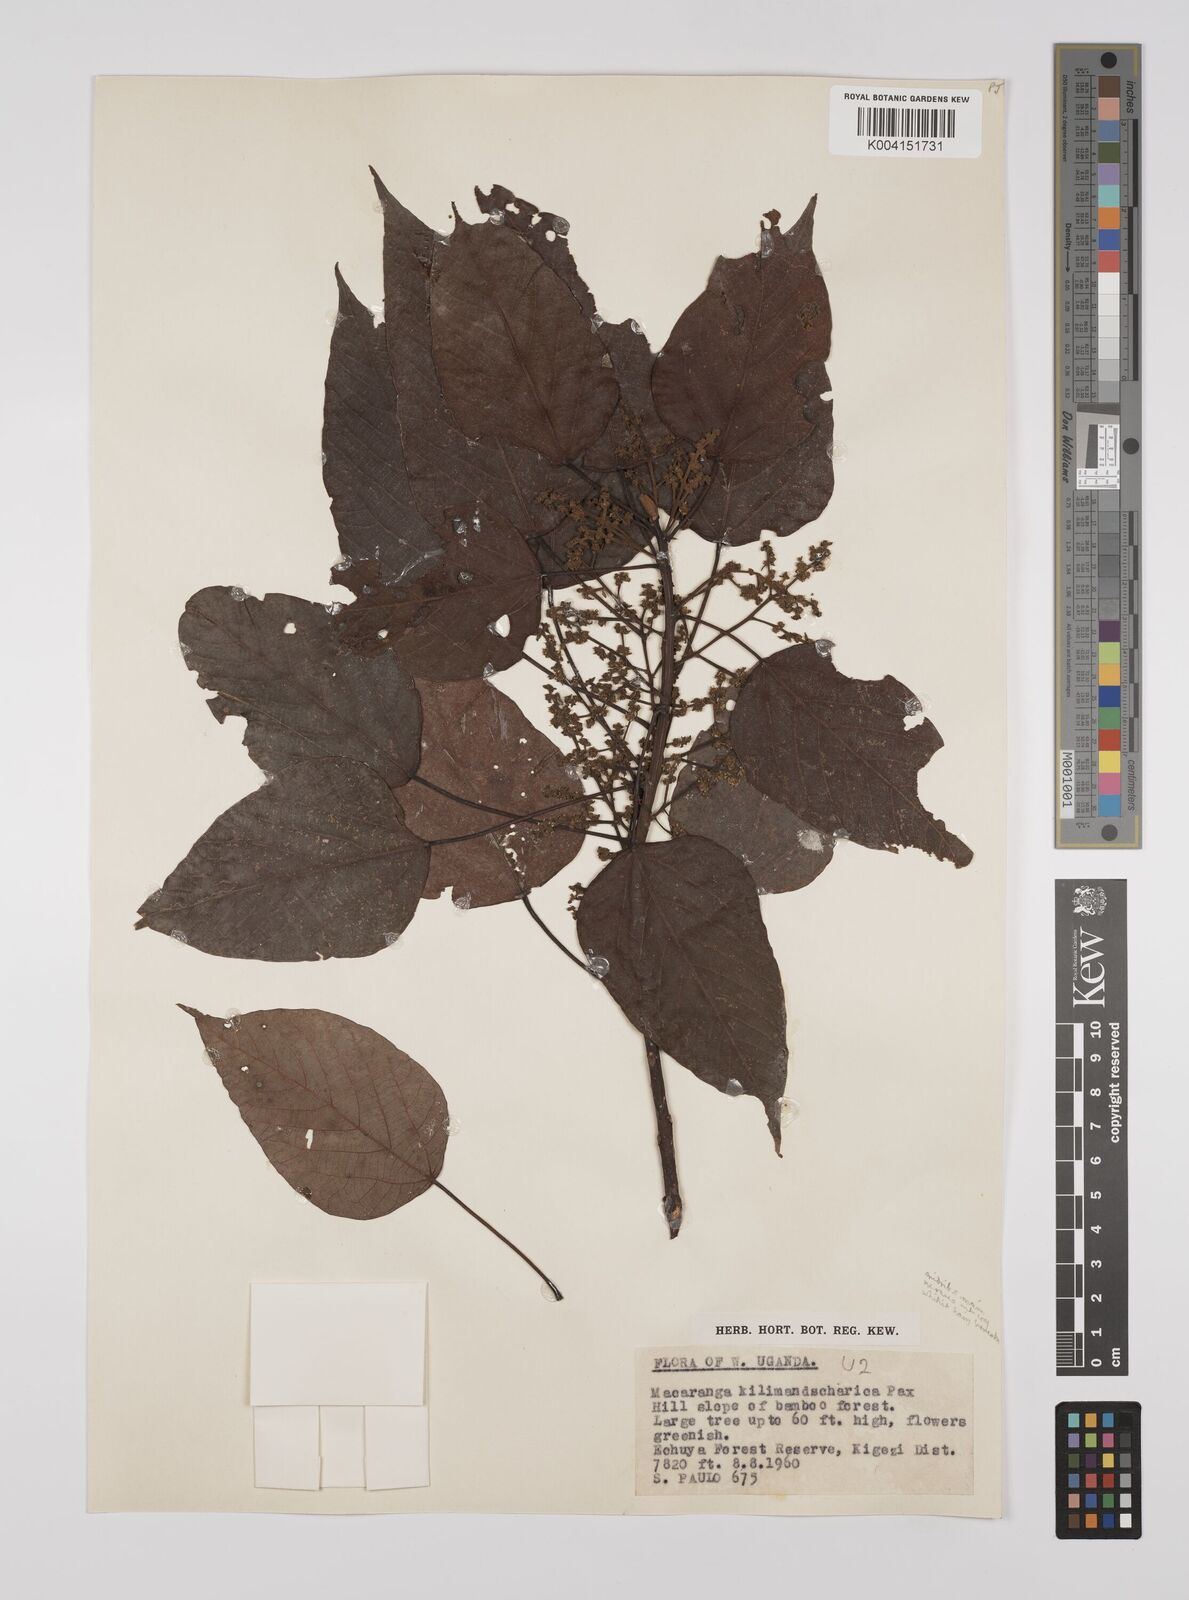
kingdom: Plantae
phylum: Tracheophyta
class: Magnoliopsida
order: Malpighiales
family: Euphorbiaceae
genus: Macaranga
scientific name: Macaranga
